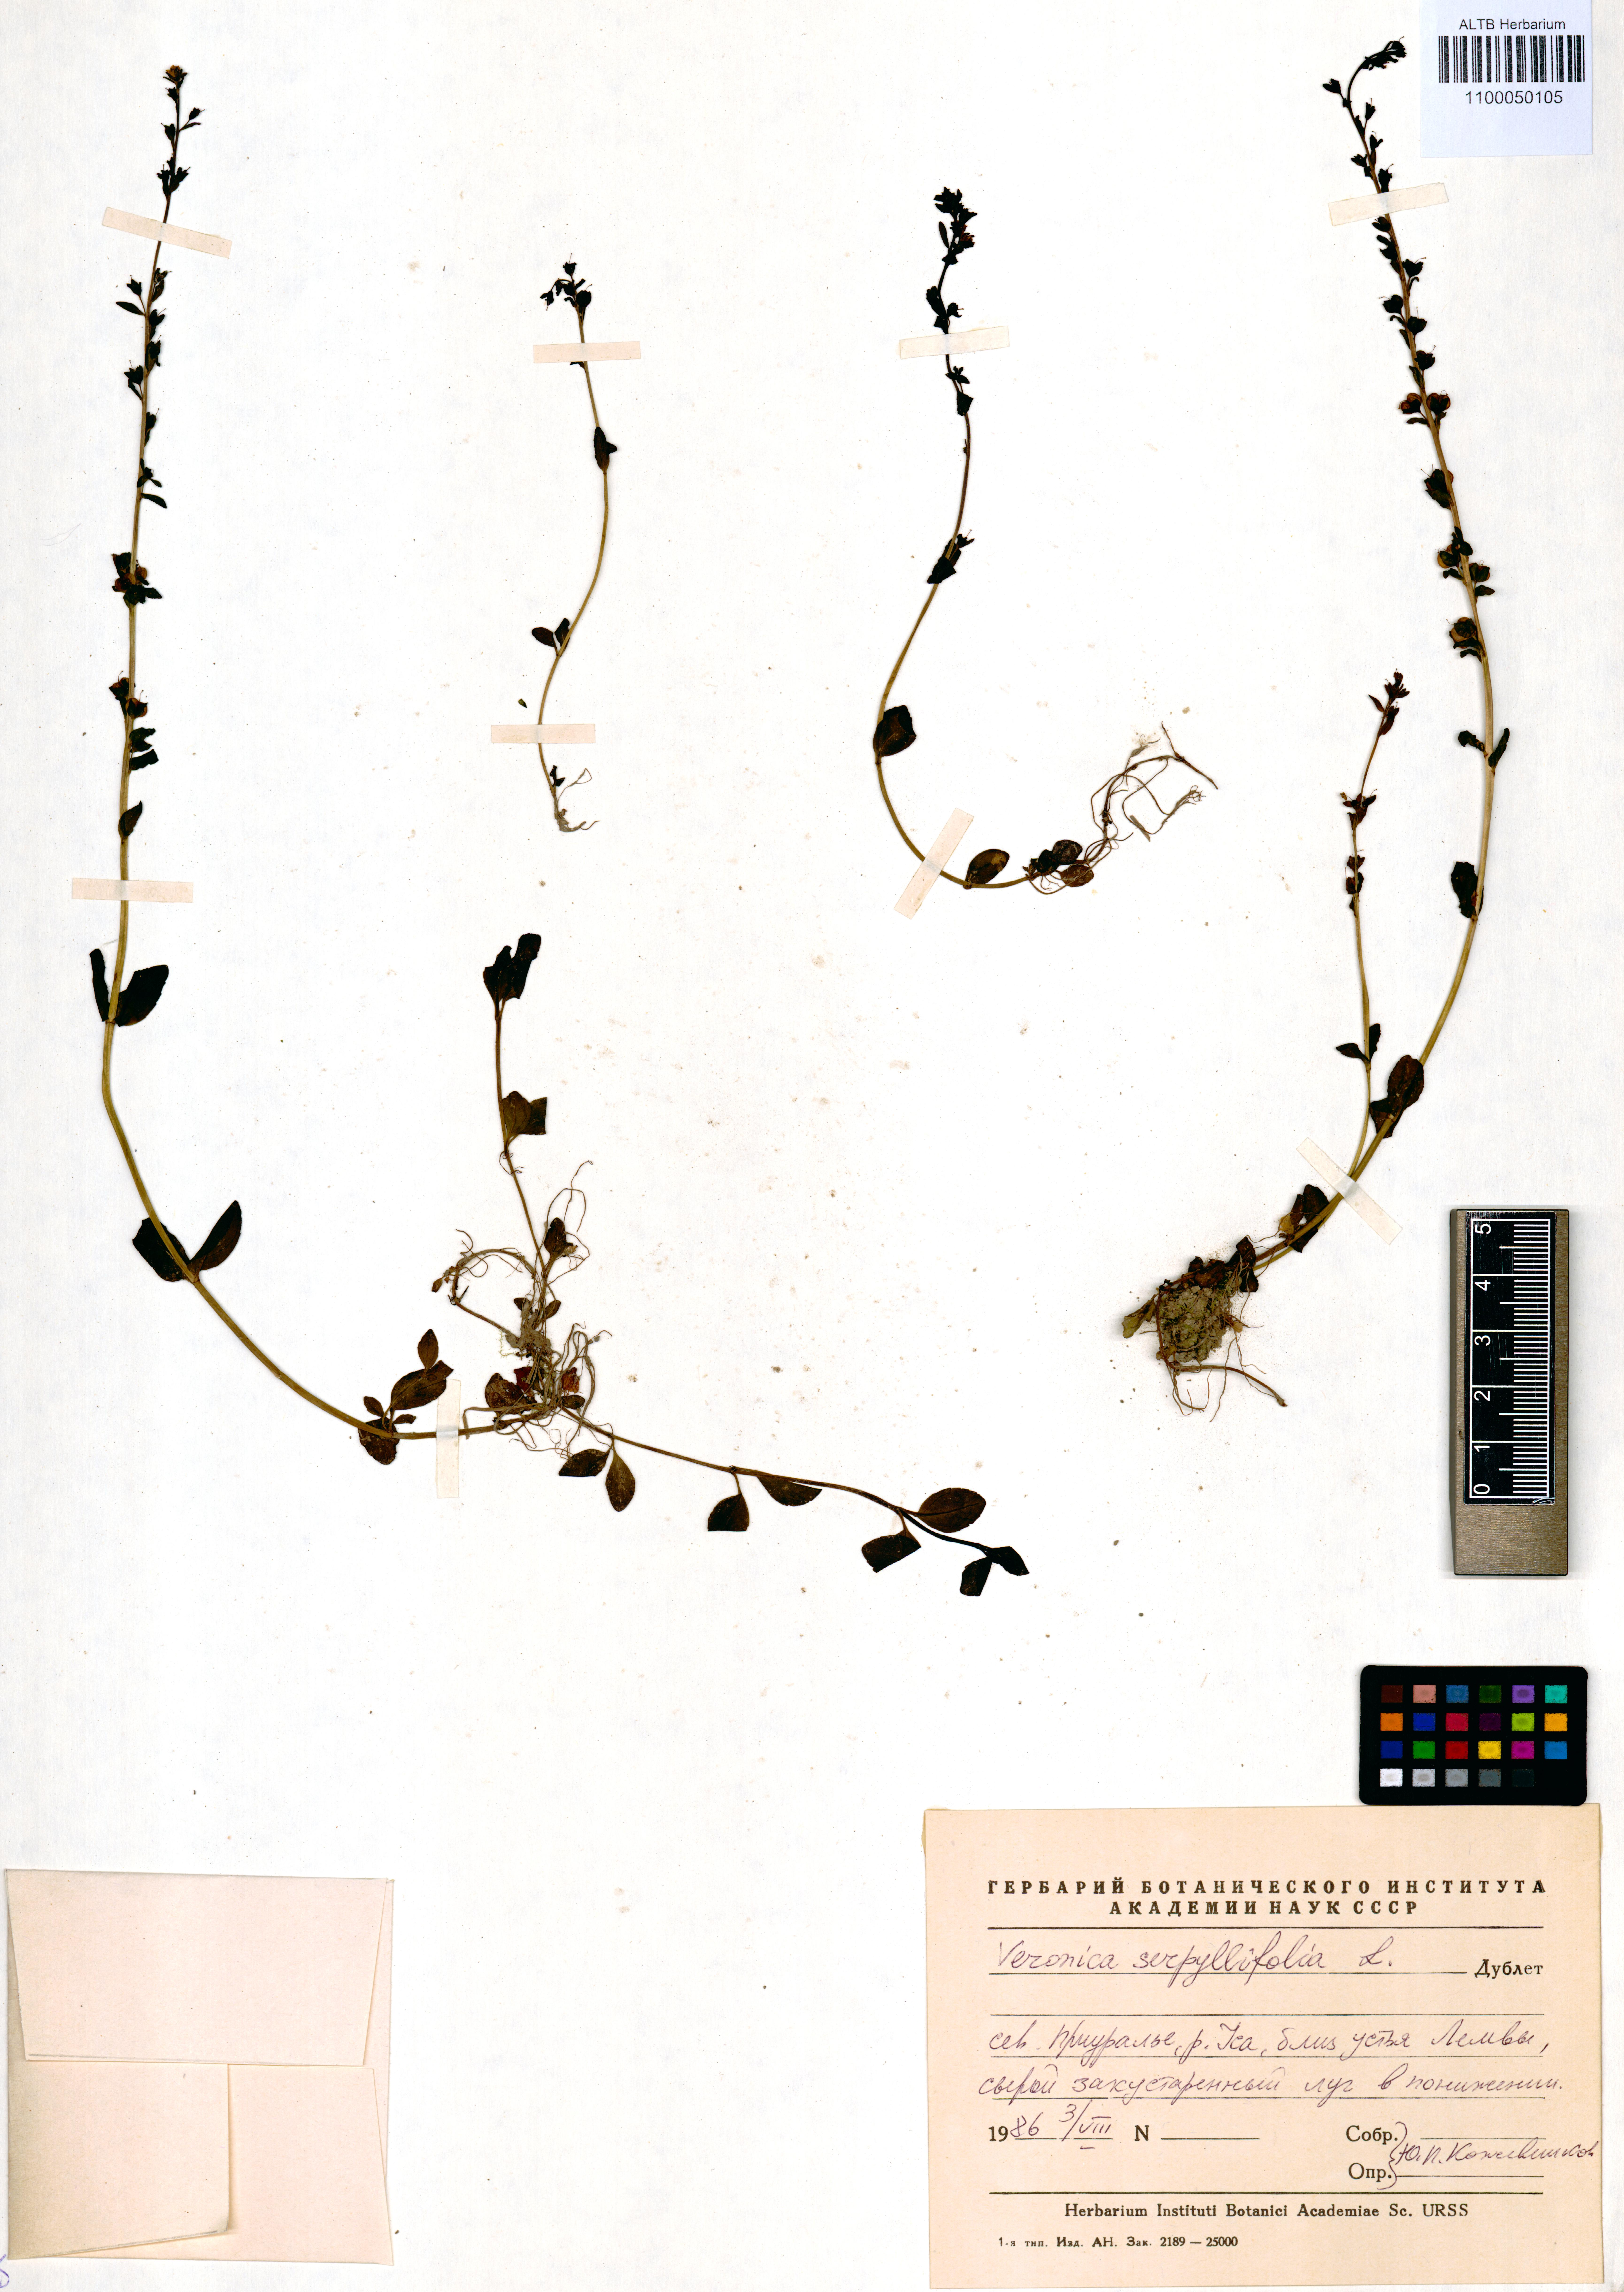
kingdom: Plantae
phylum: Tracheophyta
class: Magnoliopsida
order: Lamiales
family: Plantaginaceae
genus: Veronica
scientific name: Veronica serpyllifolia
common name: Thyme-leaved speedwell
